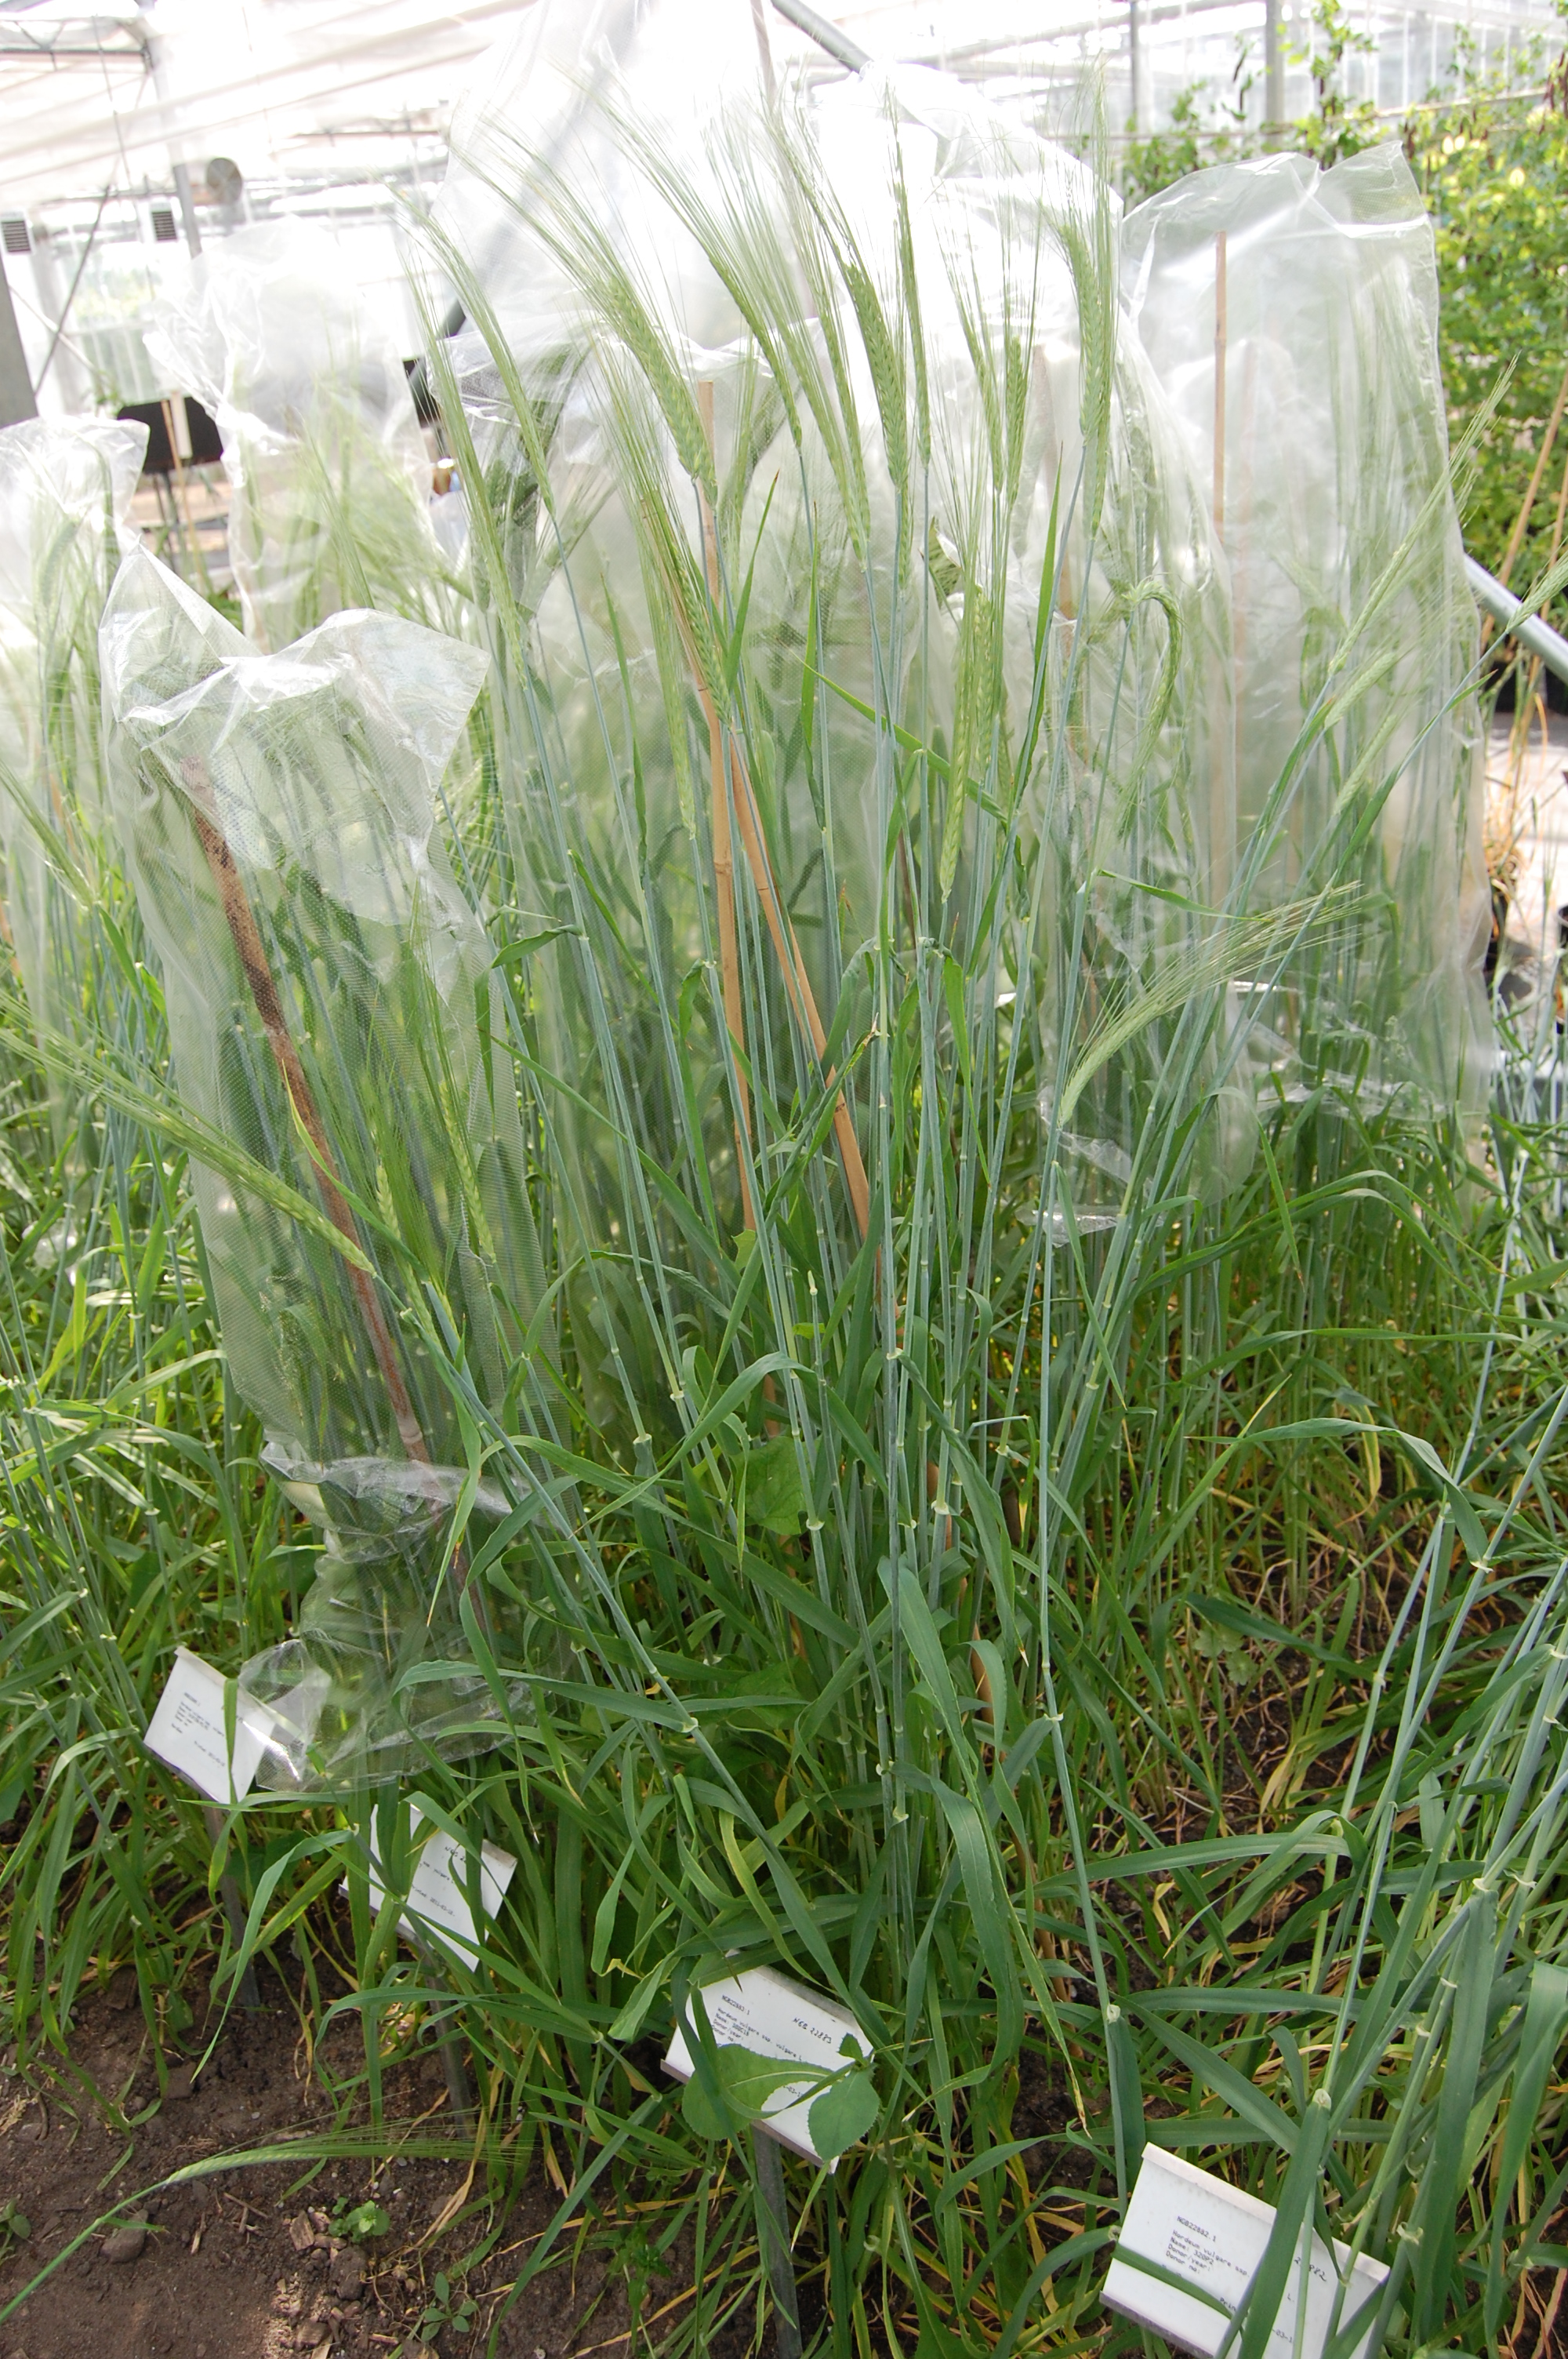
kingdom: Plantae
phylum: Tracheophyta
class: Liliopsida
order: Poales
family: Poaceae
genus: Hordeum
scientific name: Hordeum vulgare
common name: Common barley
